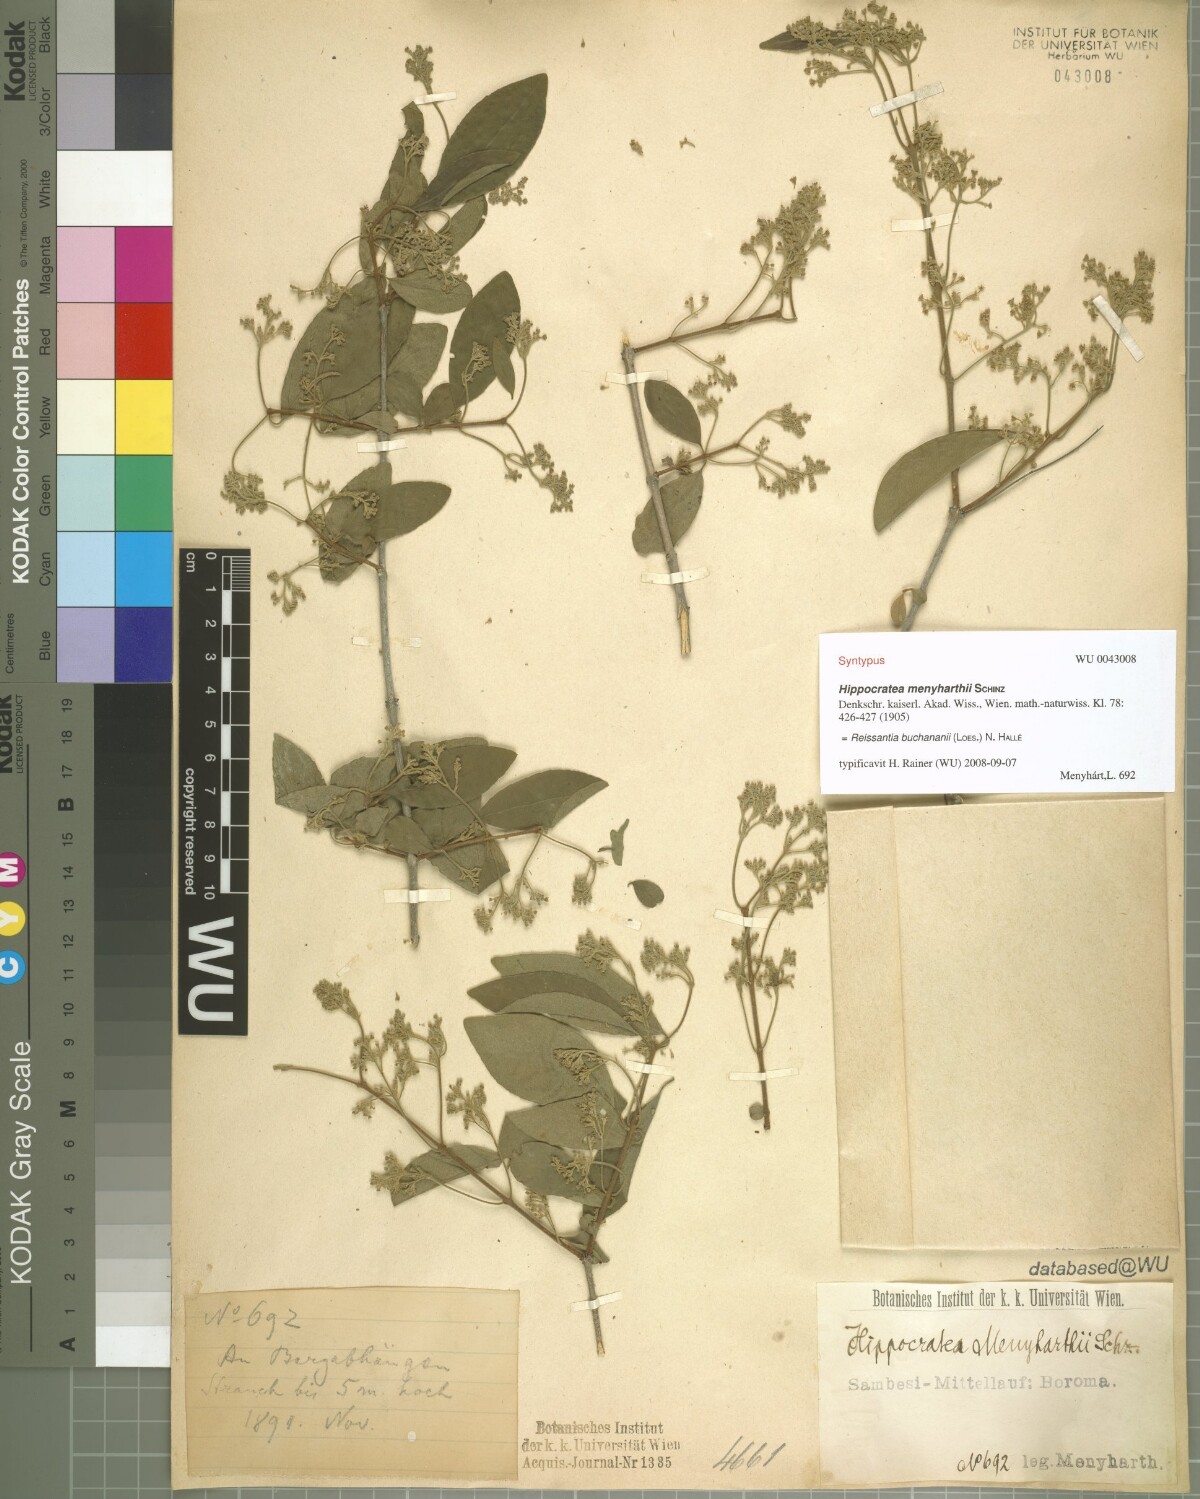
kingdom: Plantae
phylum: Tracheophyta
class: Magnoliopsida
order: Celastrales
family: Celastraceae
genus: Reissantia
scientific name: Reissantia buchananii
